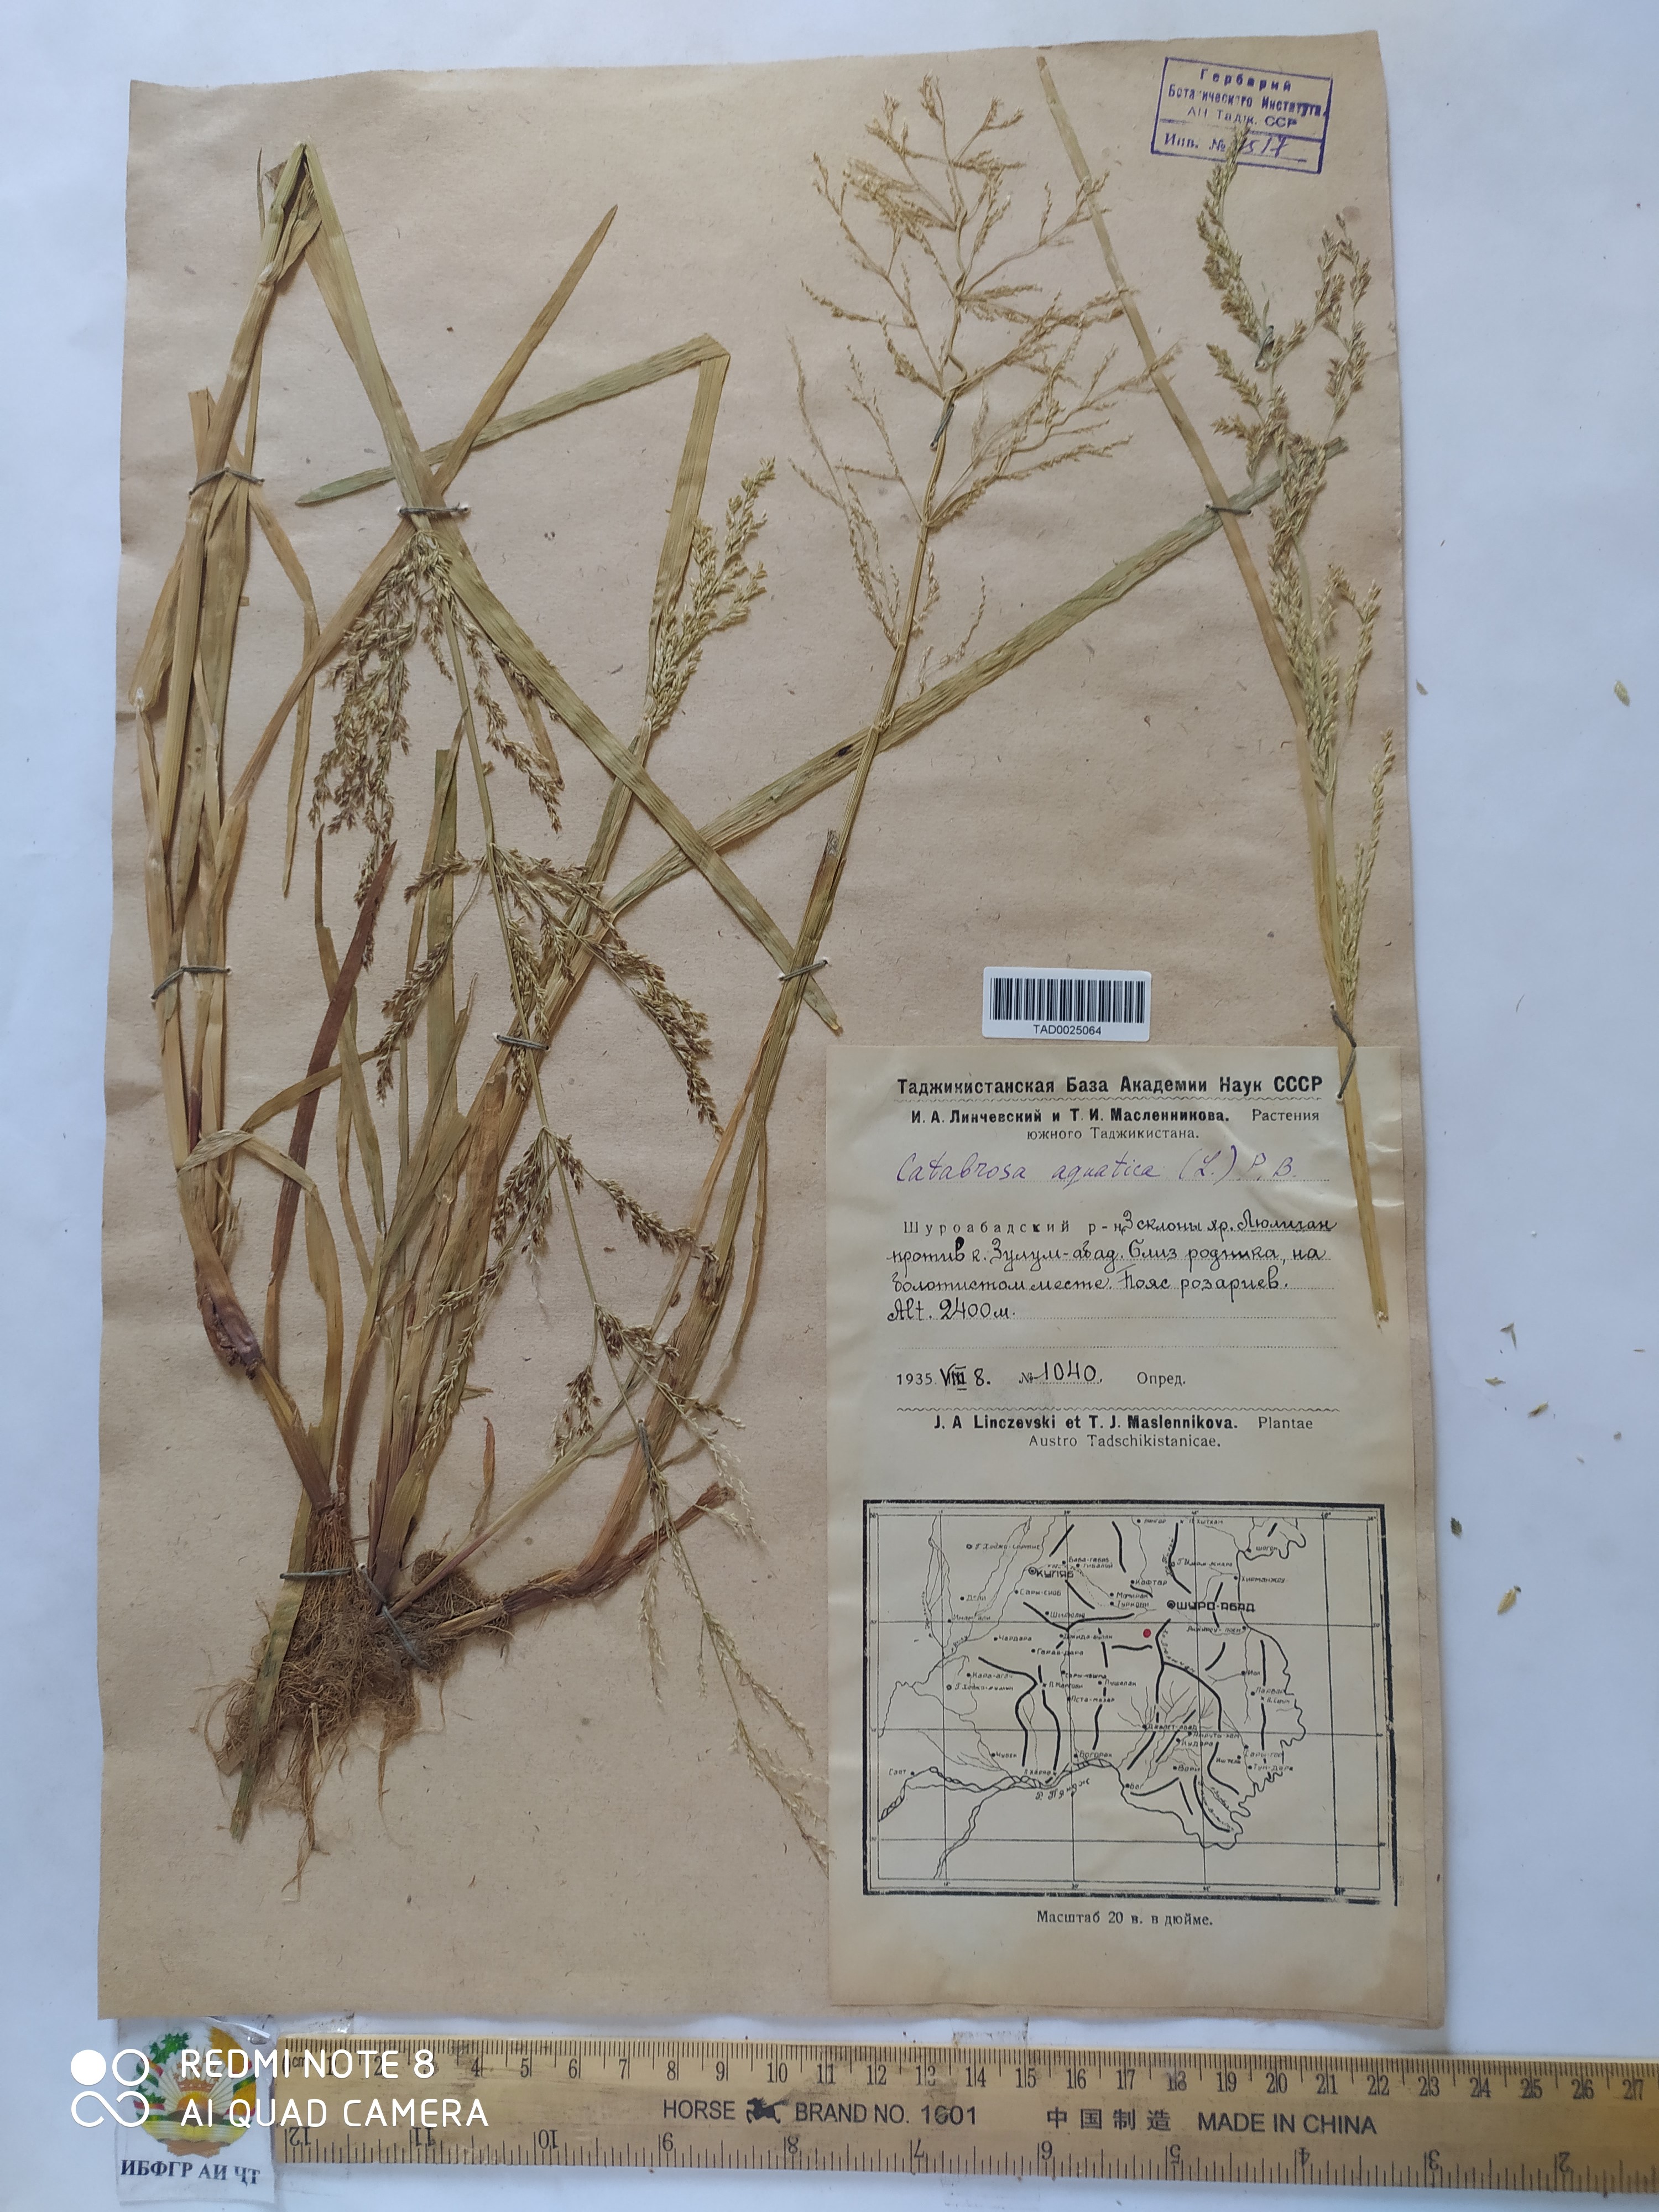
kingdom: Plantae
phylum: Tracheophyta
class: Liliopsida
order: Poales
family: Poaceae
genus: Catabrosa
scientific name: Catabrosa aquatica
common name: Whorl-grass
